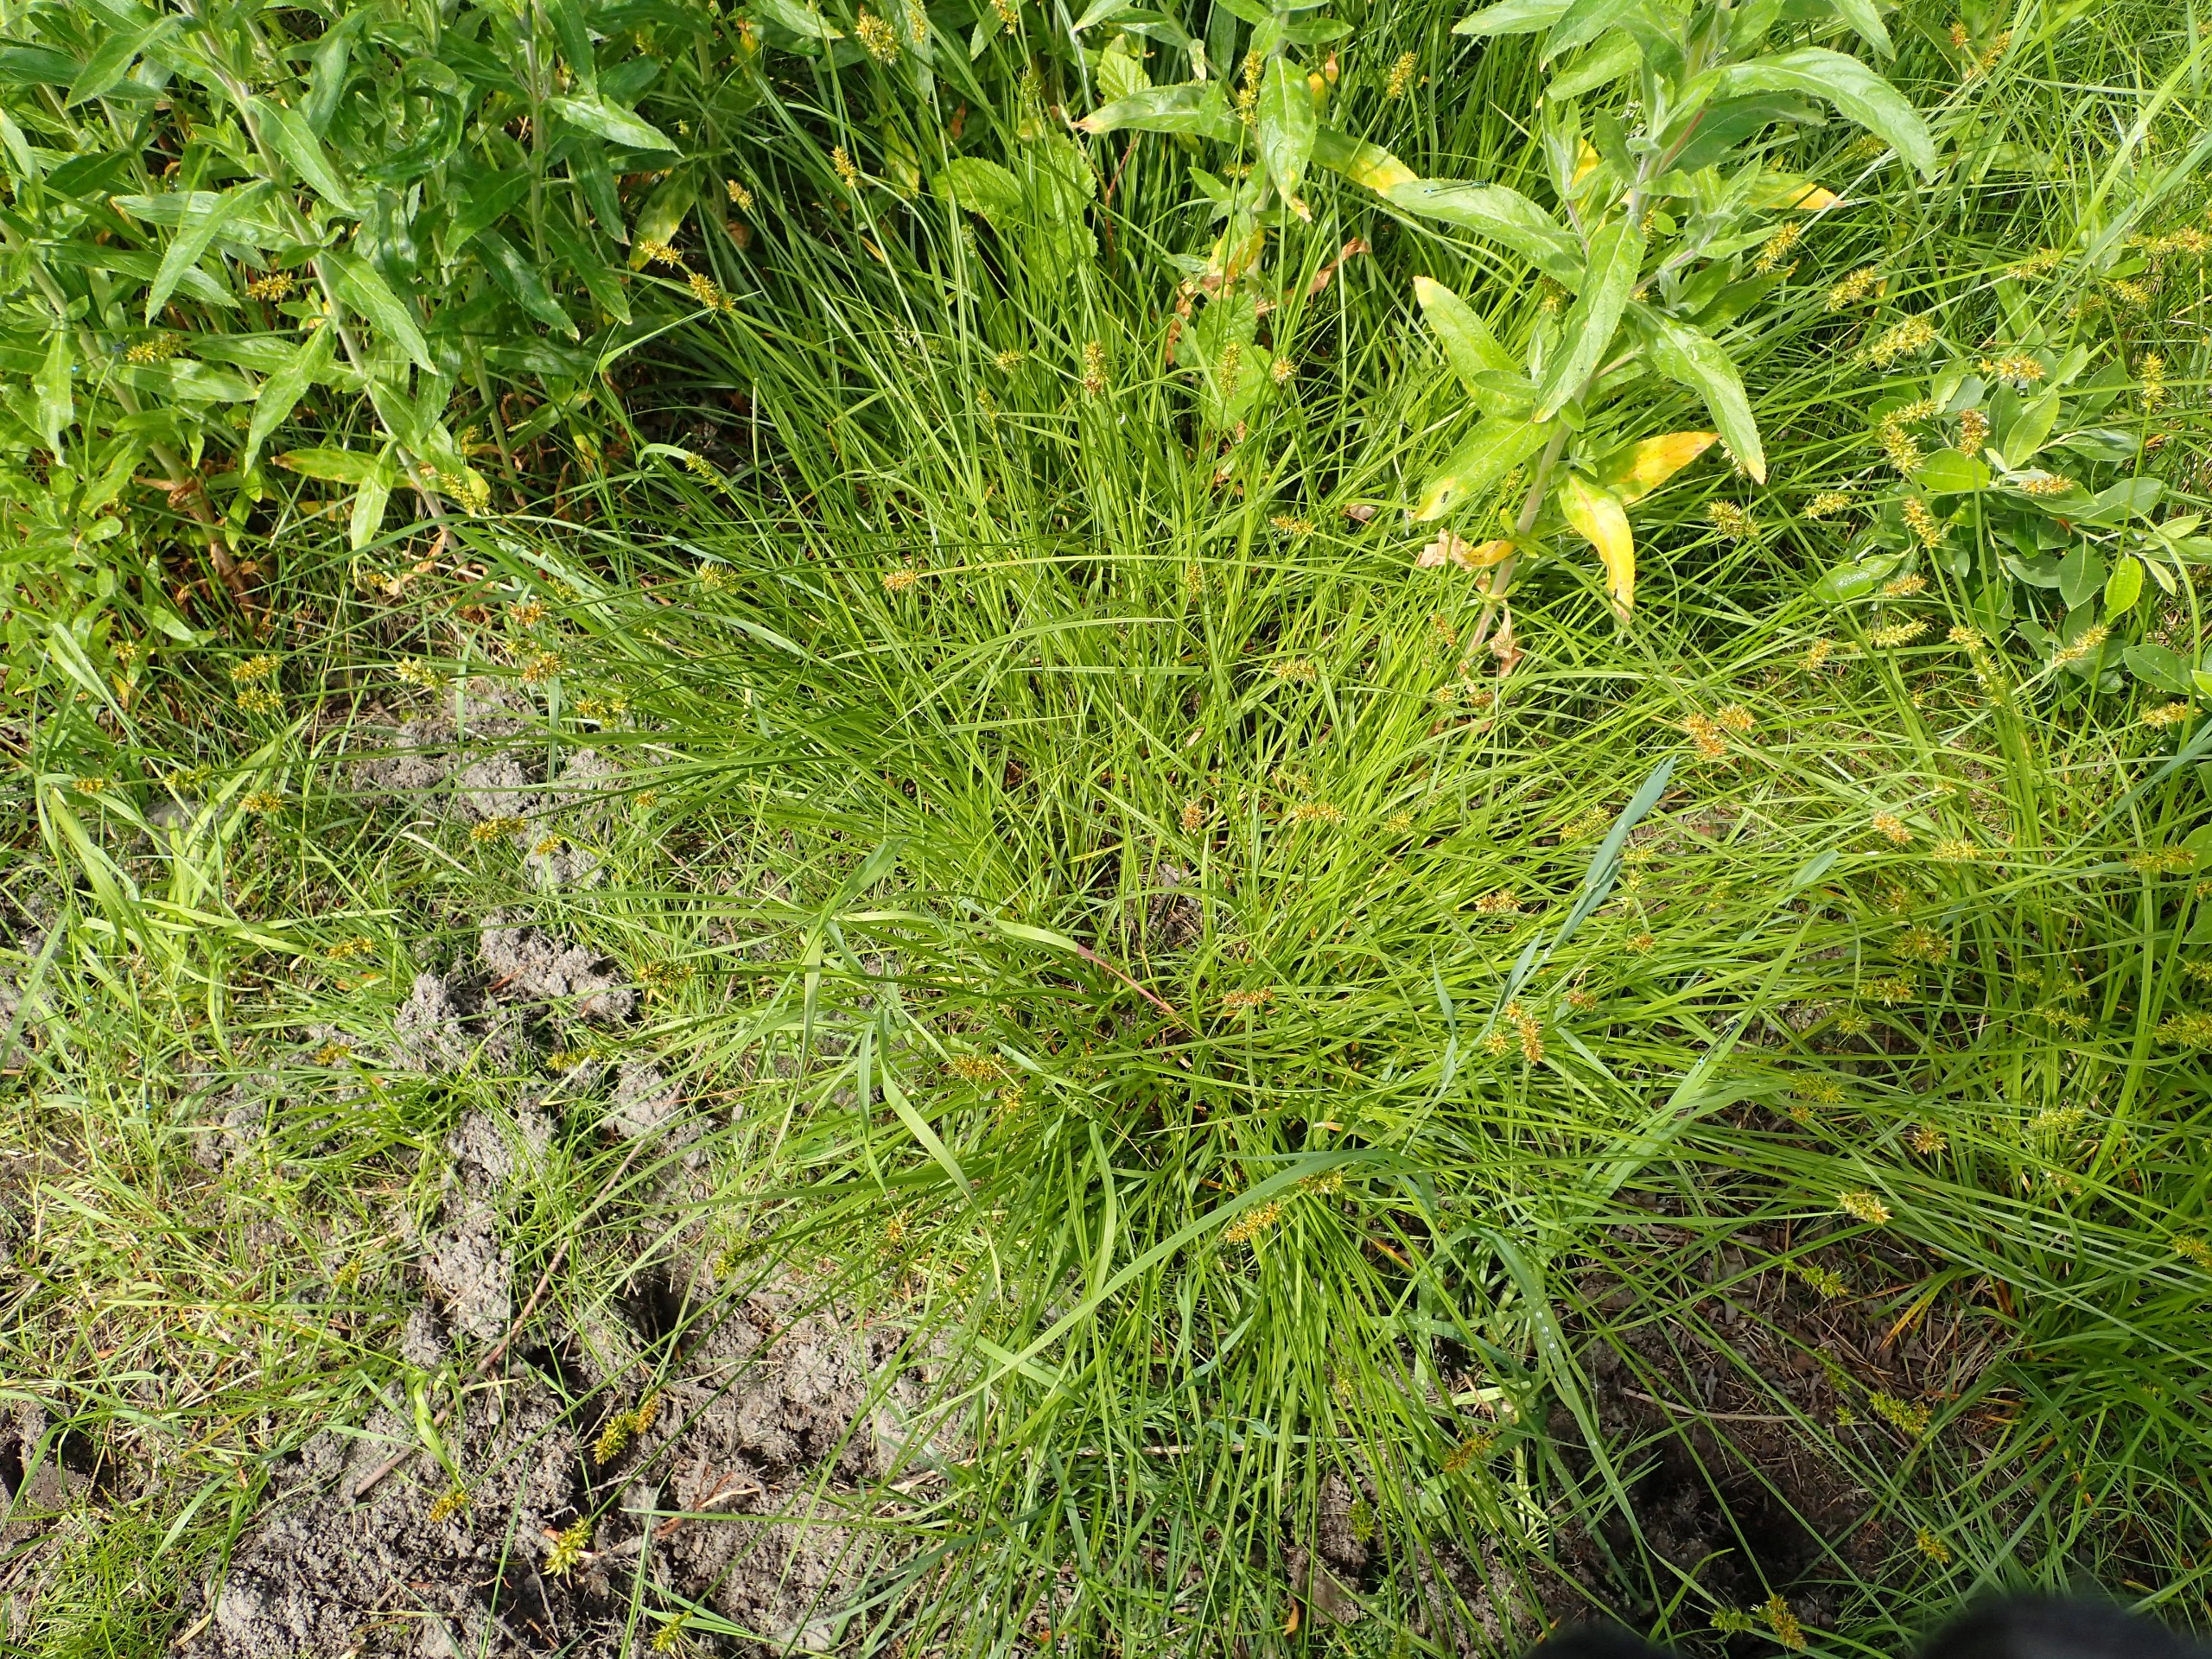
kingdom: Plantae
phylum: Tracheophyta
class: Liliopsida
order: Poales
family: Cyperaceae
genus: Carex
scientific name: Carex otrubae
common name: Sylt-star
